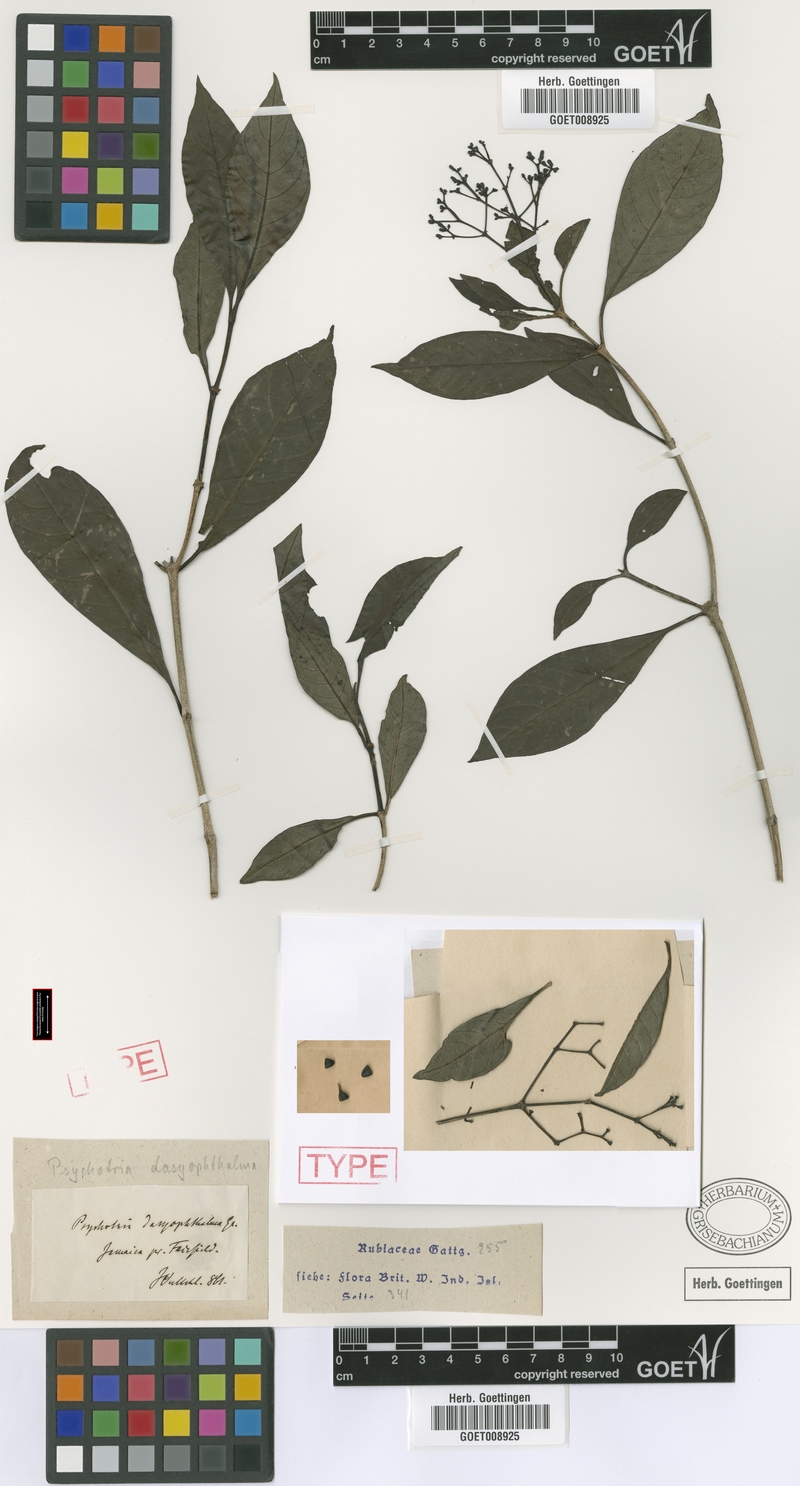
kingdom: Plantae
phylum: Tracheophyta
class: Magnoliopsida
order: Gentianales
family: Rubiaceae
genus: Psychotria
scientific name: Psychotria dasyophthalma
